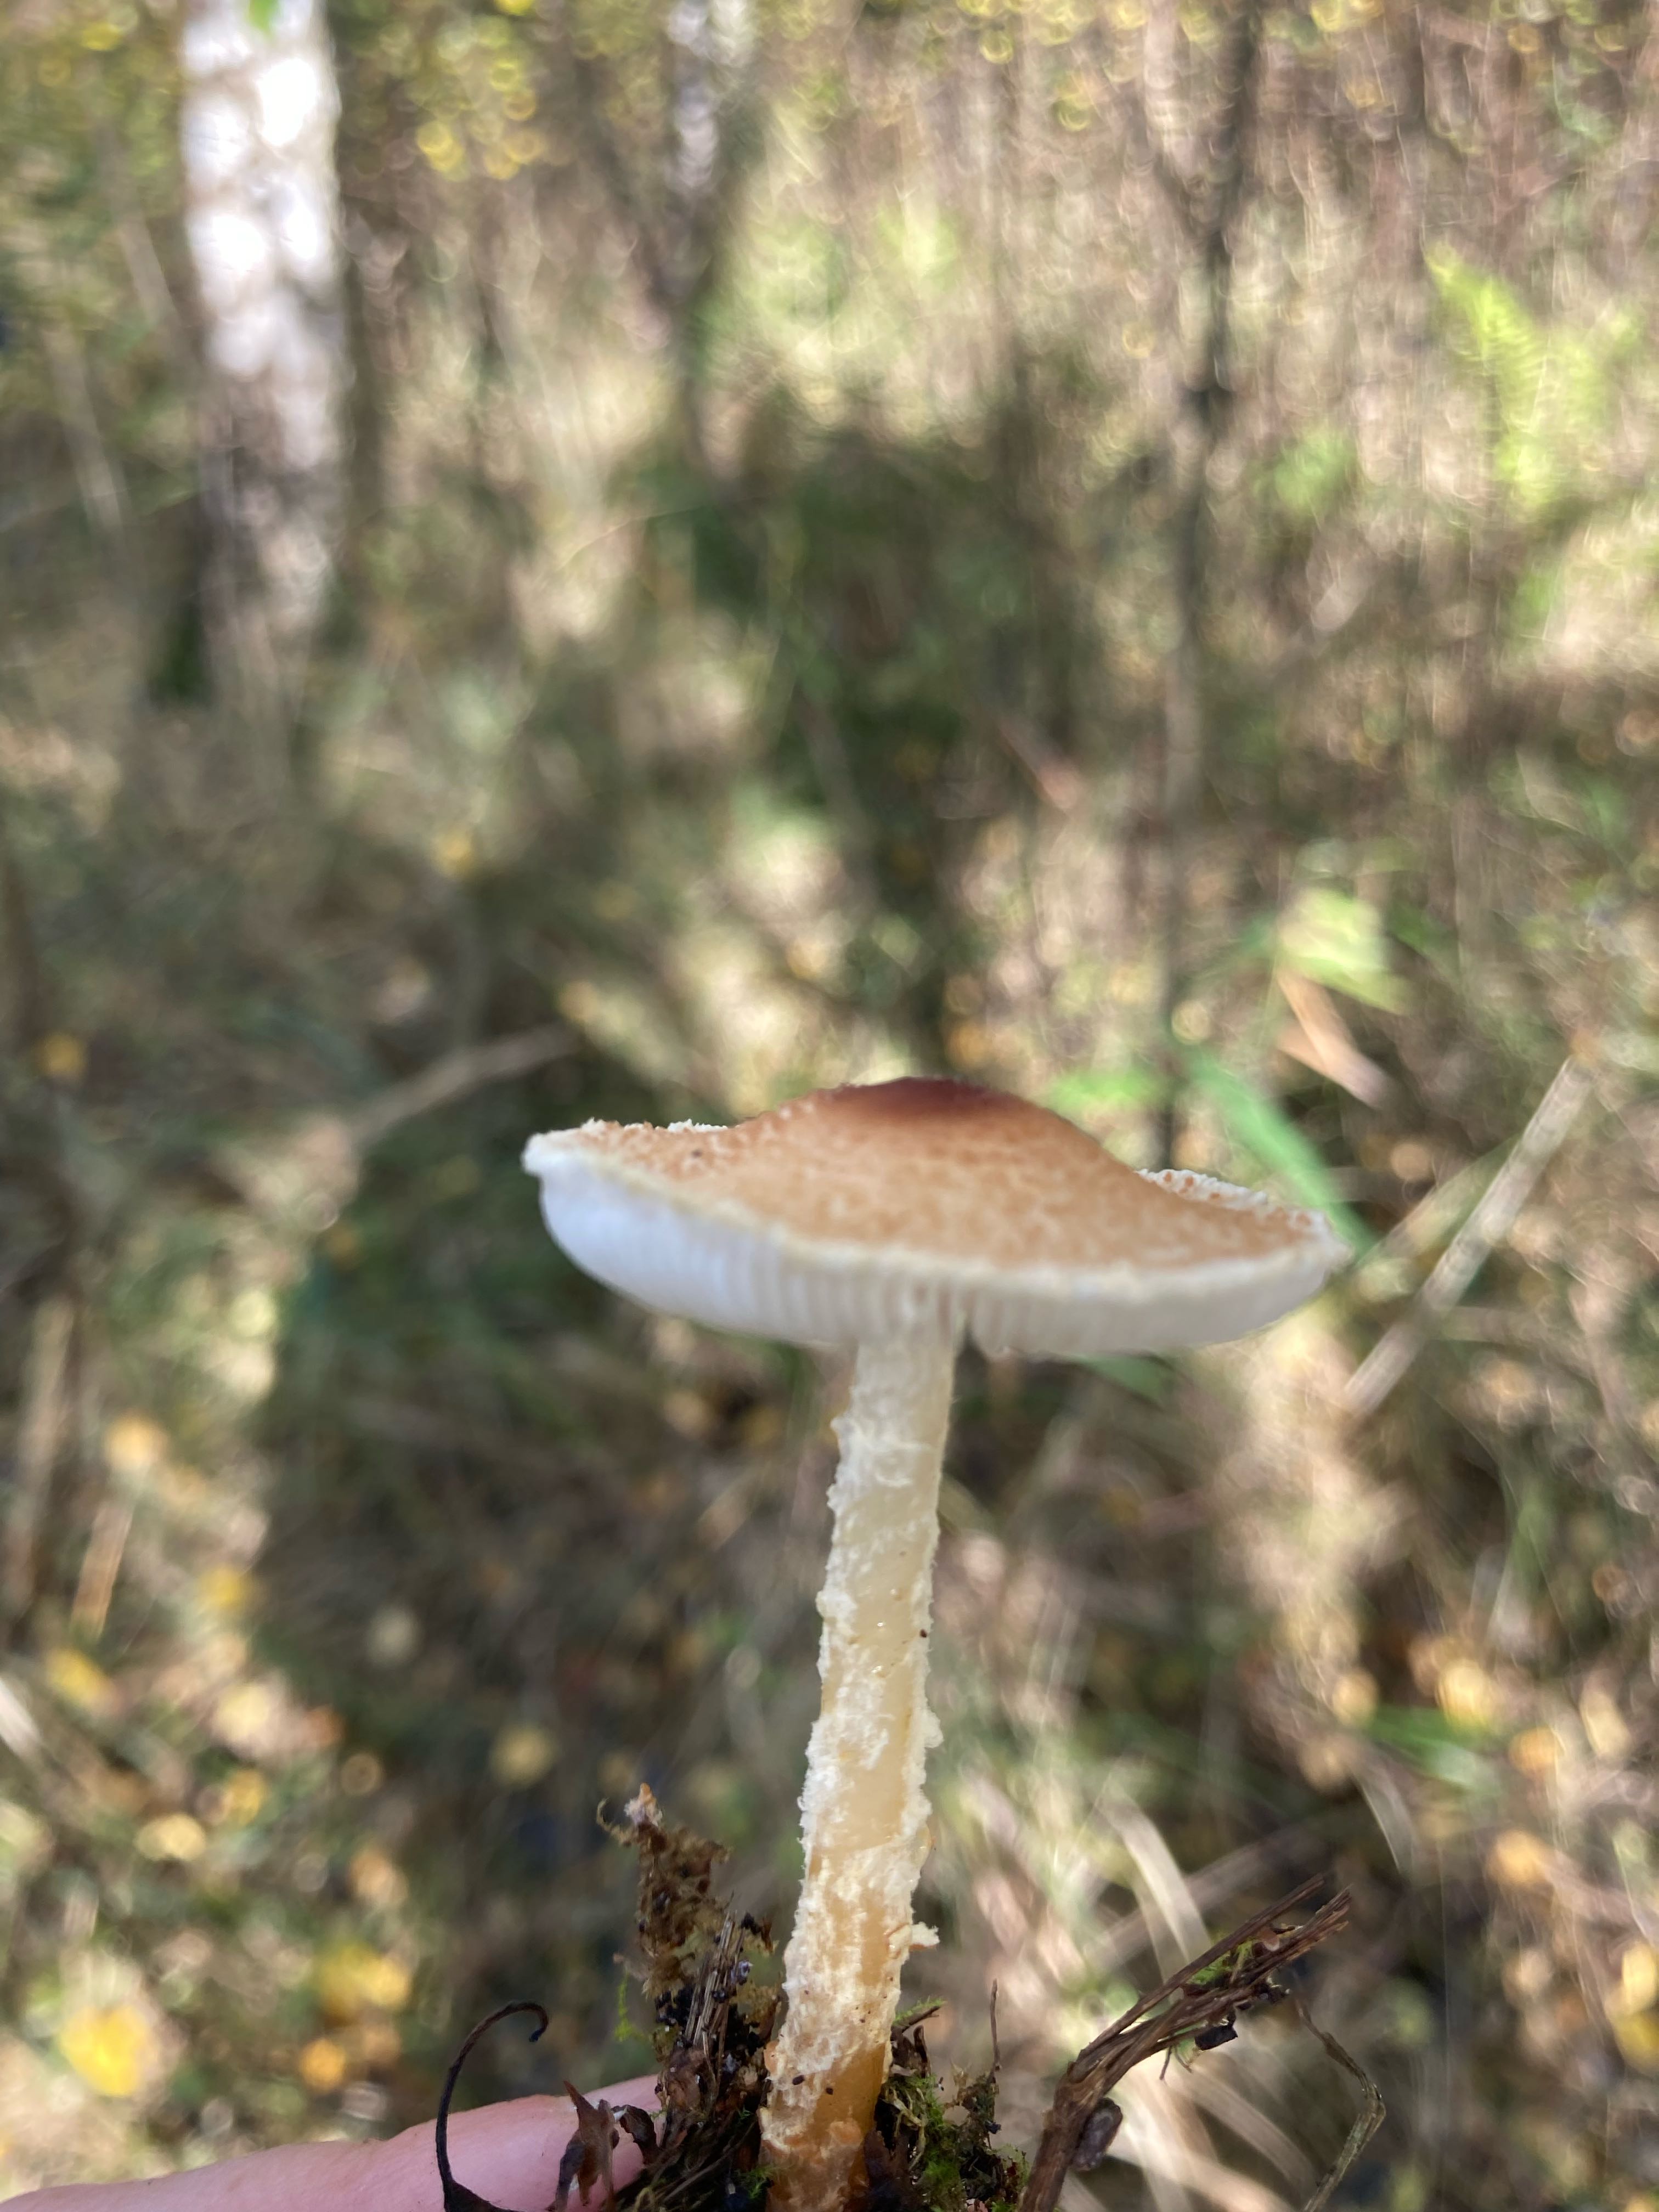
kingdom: Fungi
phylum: Basidiomycota
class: Agaricomycetes
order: Agaricales
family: Agaricaceae
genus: Lepiota
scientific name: Lepiota
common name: parasolhat
